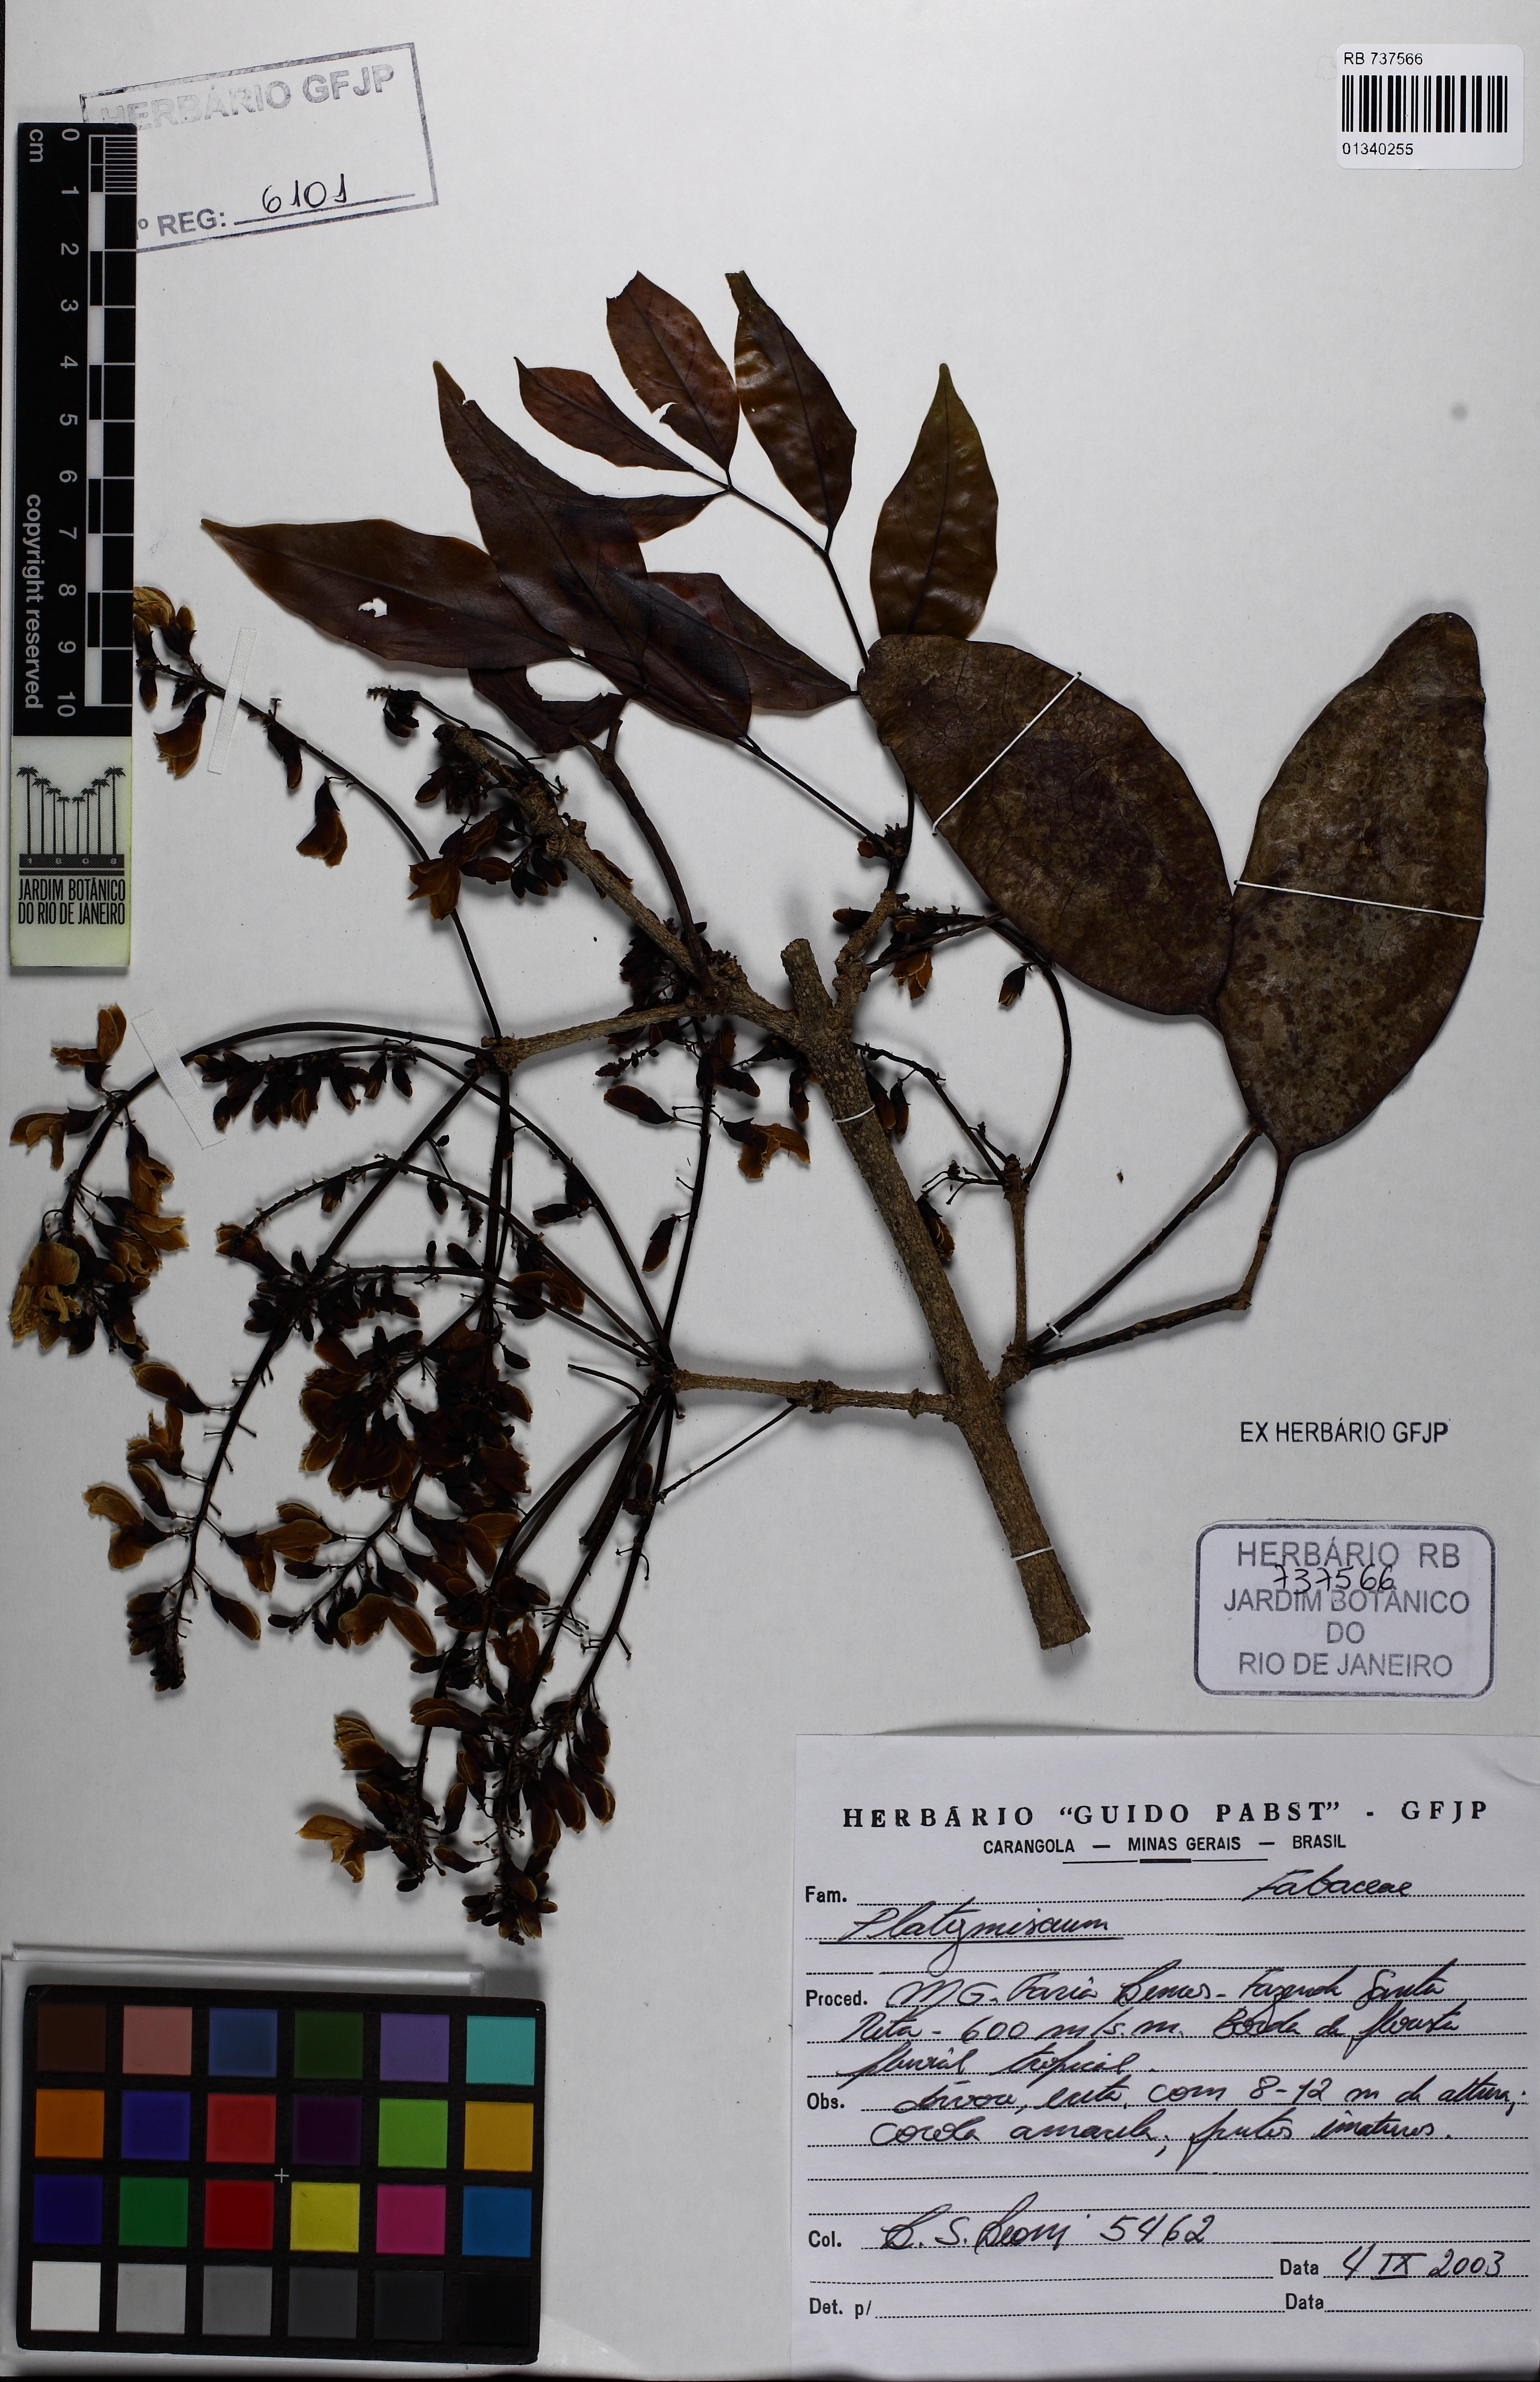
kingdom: Plantae
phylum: Tracheophyta
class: Magnoliopsida
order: Fabales
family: Fabaceae
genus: Platymiscium
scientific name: Platymiscium
